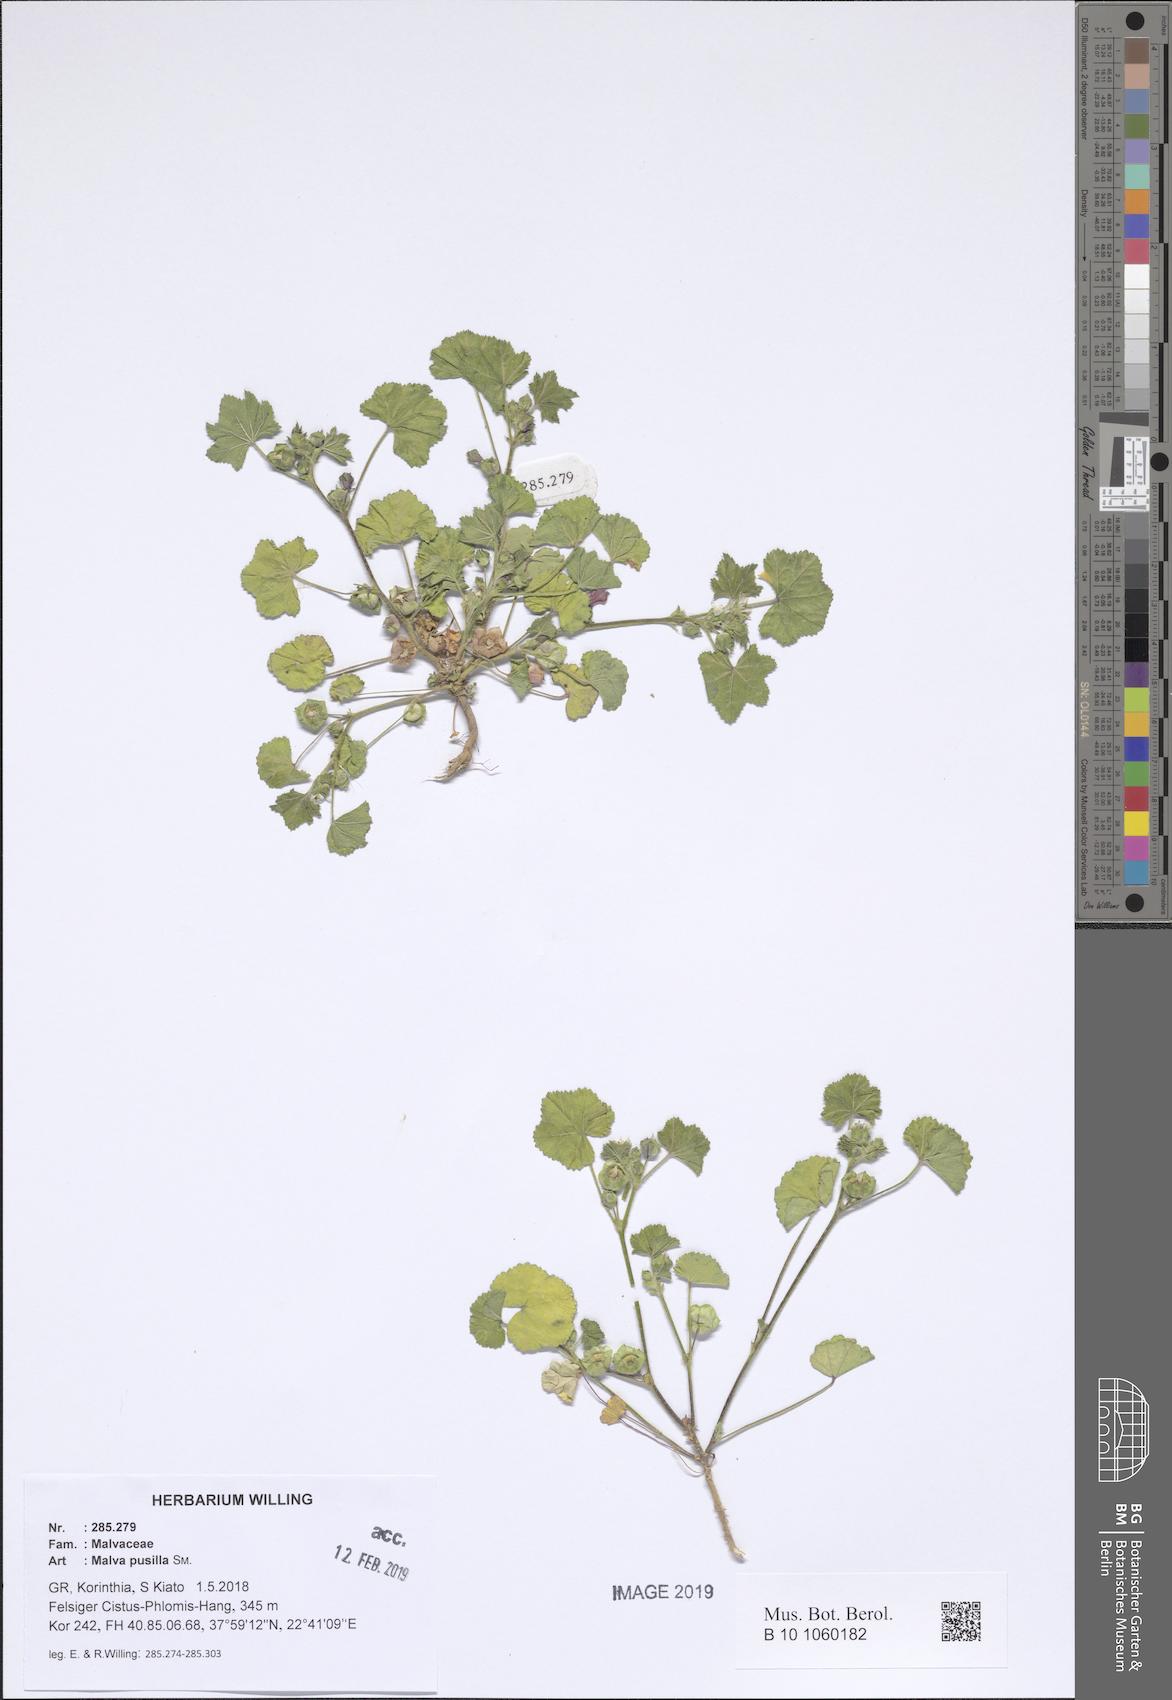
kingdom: Plantae
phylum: Tracheophyta
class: Magnoliopsida
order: Malvales
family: Malvaceae
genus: Malva
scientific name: Malva parviflora
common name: Least mallow
